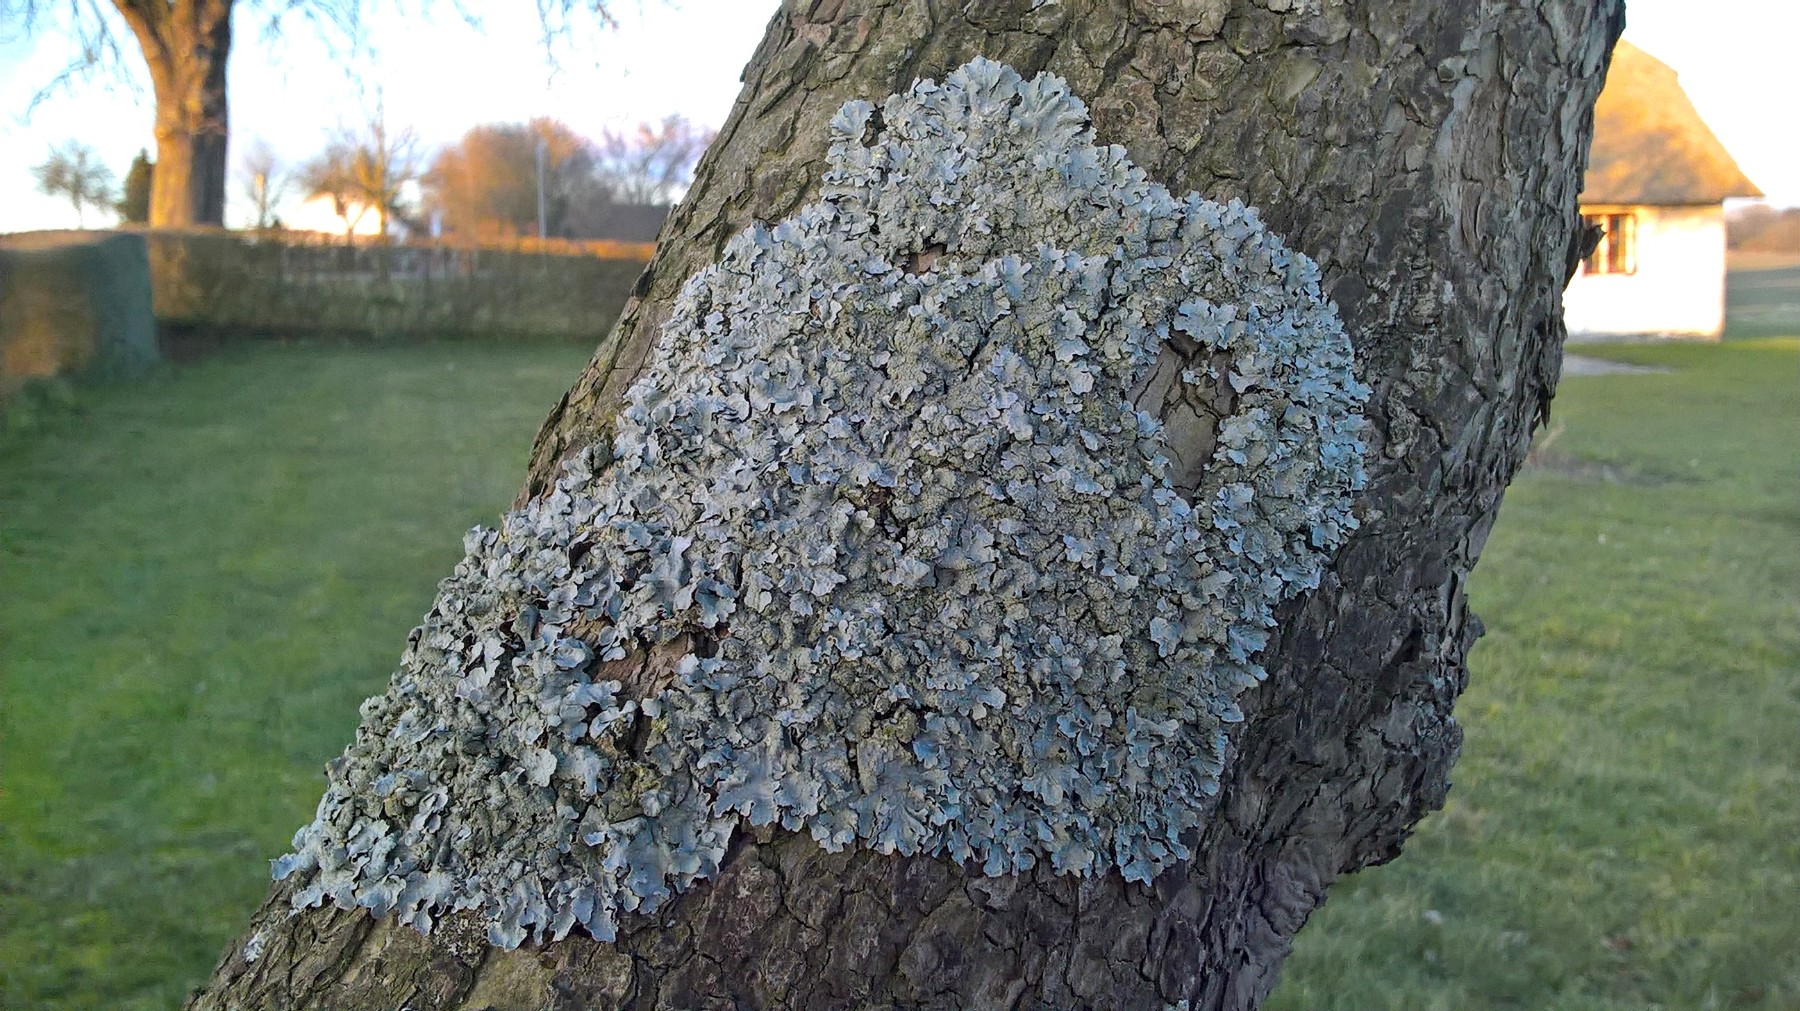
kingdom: Fungi
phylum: Ascomycota
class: Lecanoromycetes
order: Lecanorales
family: Parmeliaceae
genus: Parmelia
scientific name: Parmelia sulcata
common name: rynket skållav
